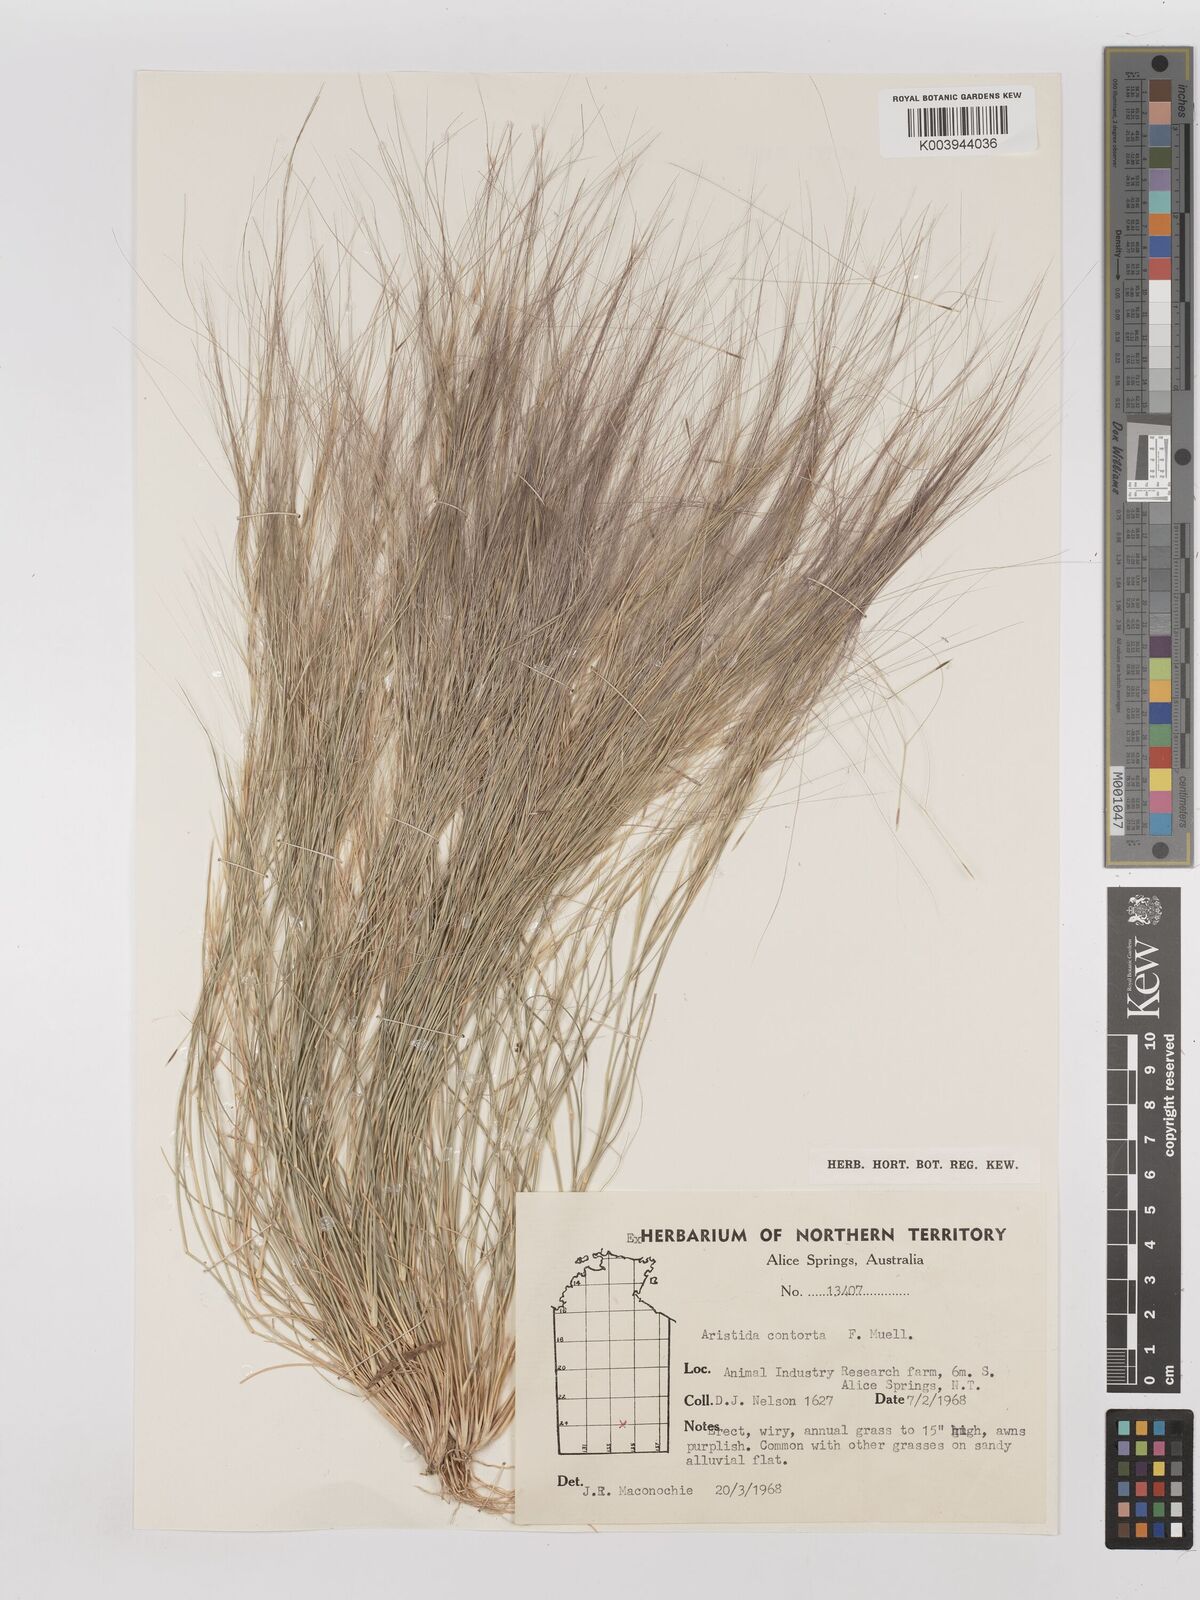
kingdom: Plantae
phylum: Tracheophyta
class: Liliopsida
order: Poales
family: Poaceae
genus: Aristida
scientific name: Aristida contorta
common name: Bunch kerosene grass
